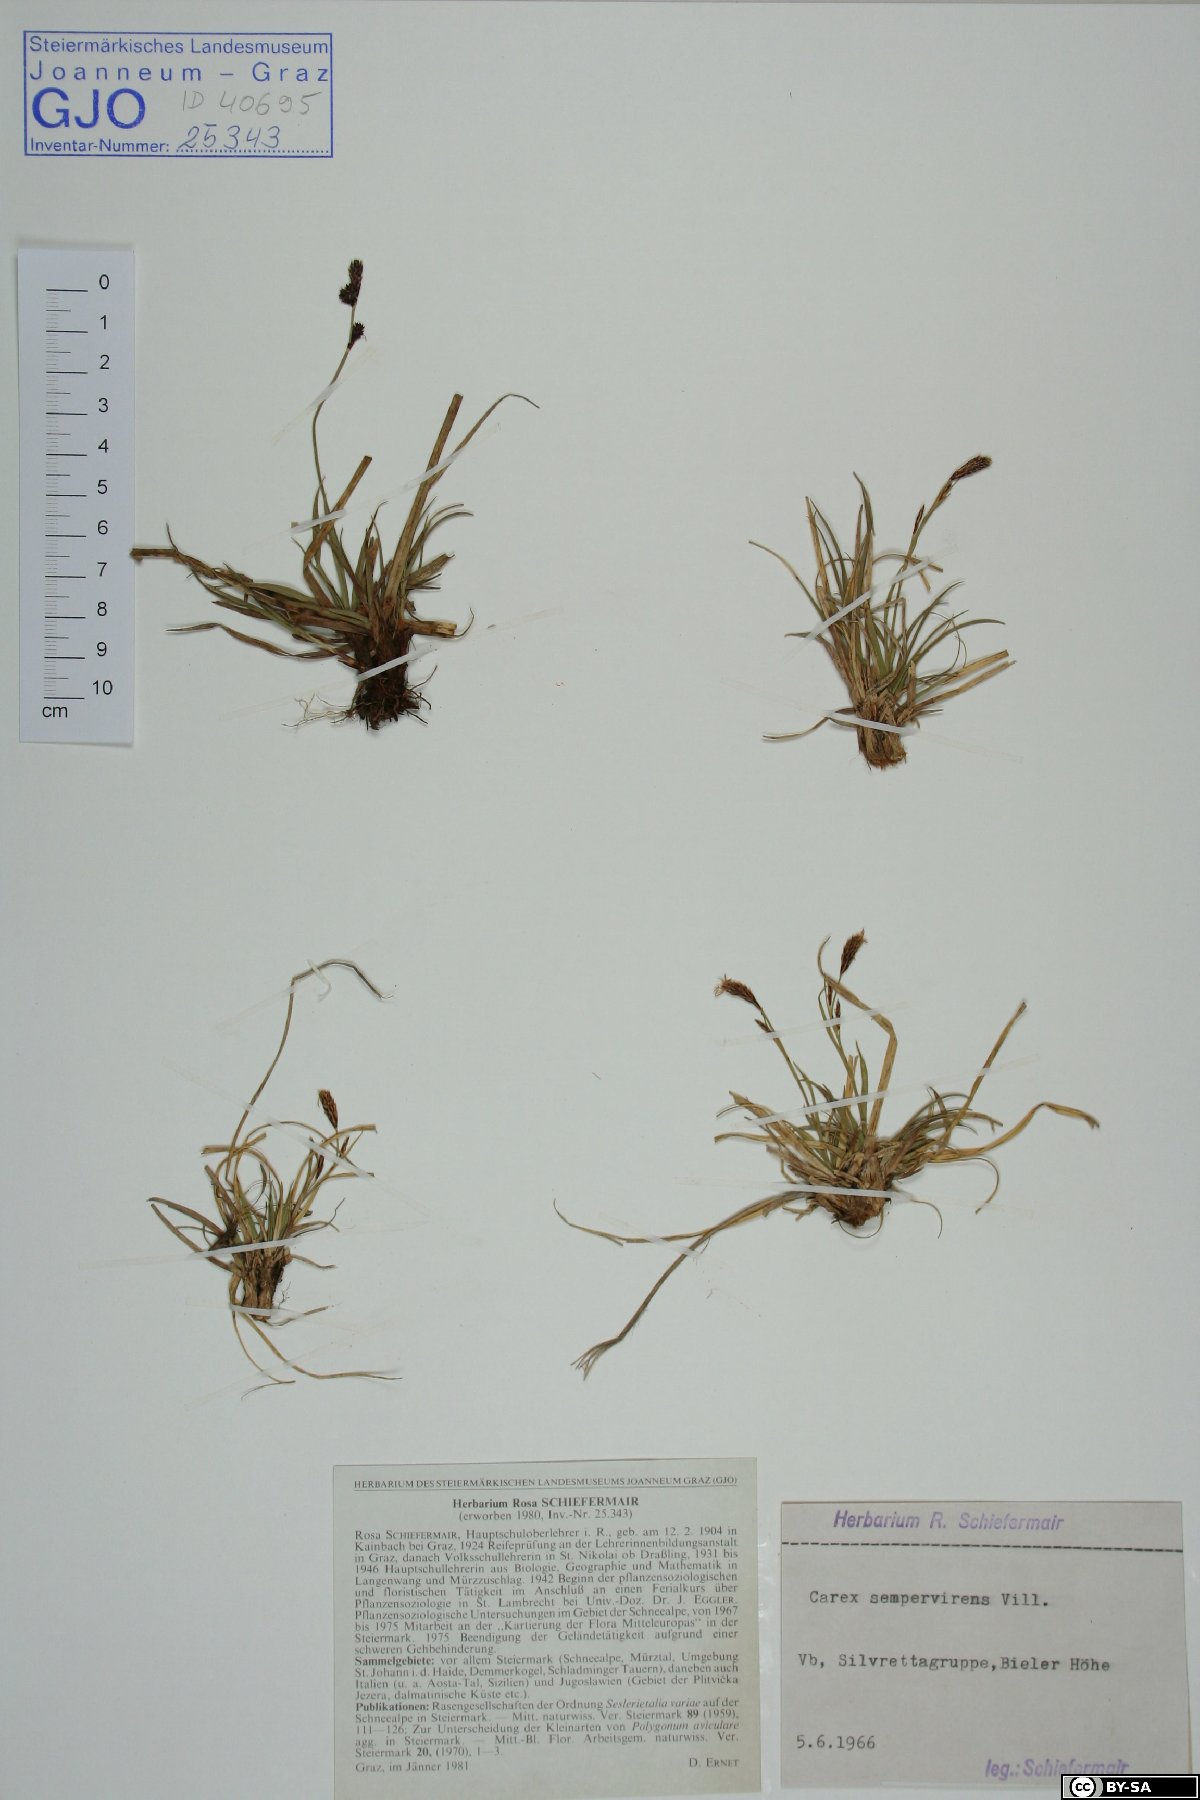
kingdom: Plantae
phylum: Tracheophyta
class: Liliopsida
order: Poales
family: Cyperaceae
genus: Carex
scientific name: Carex sempervirens
